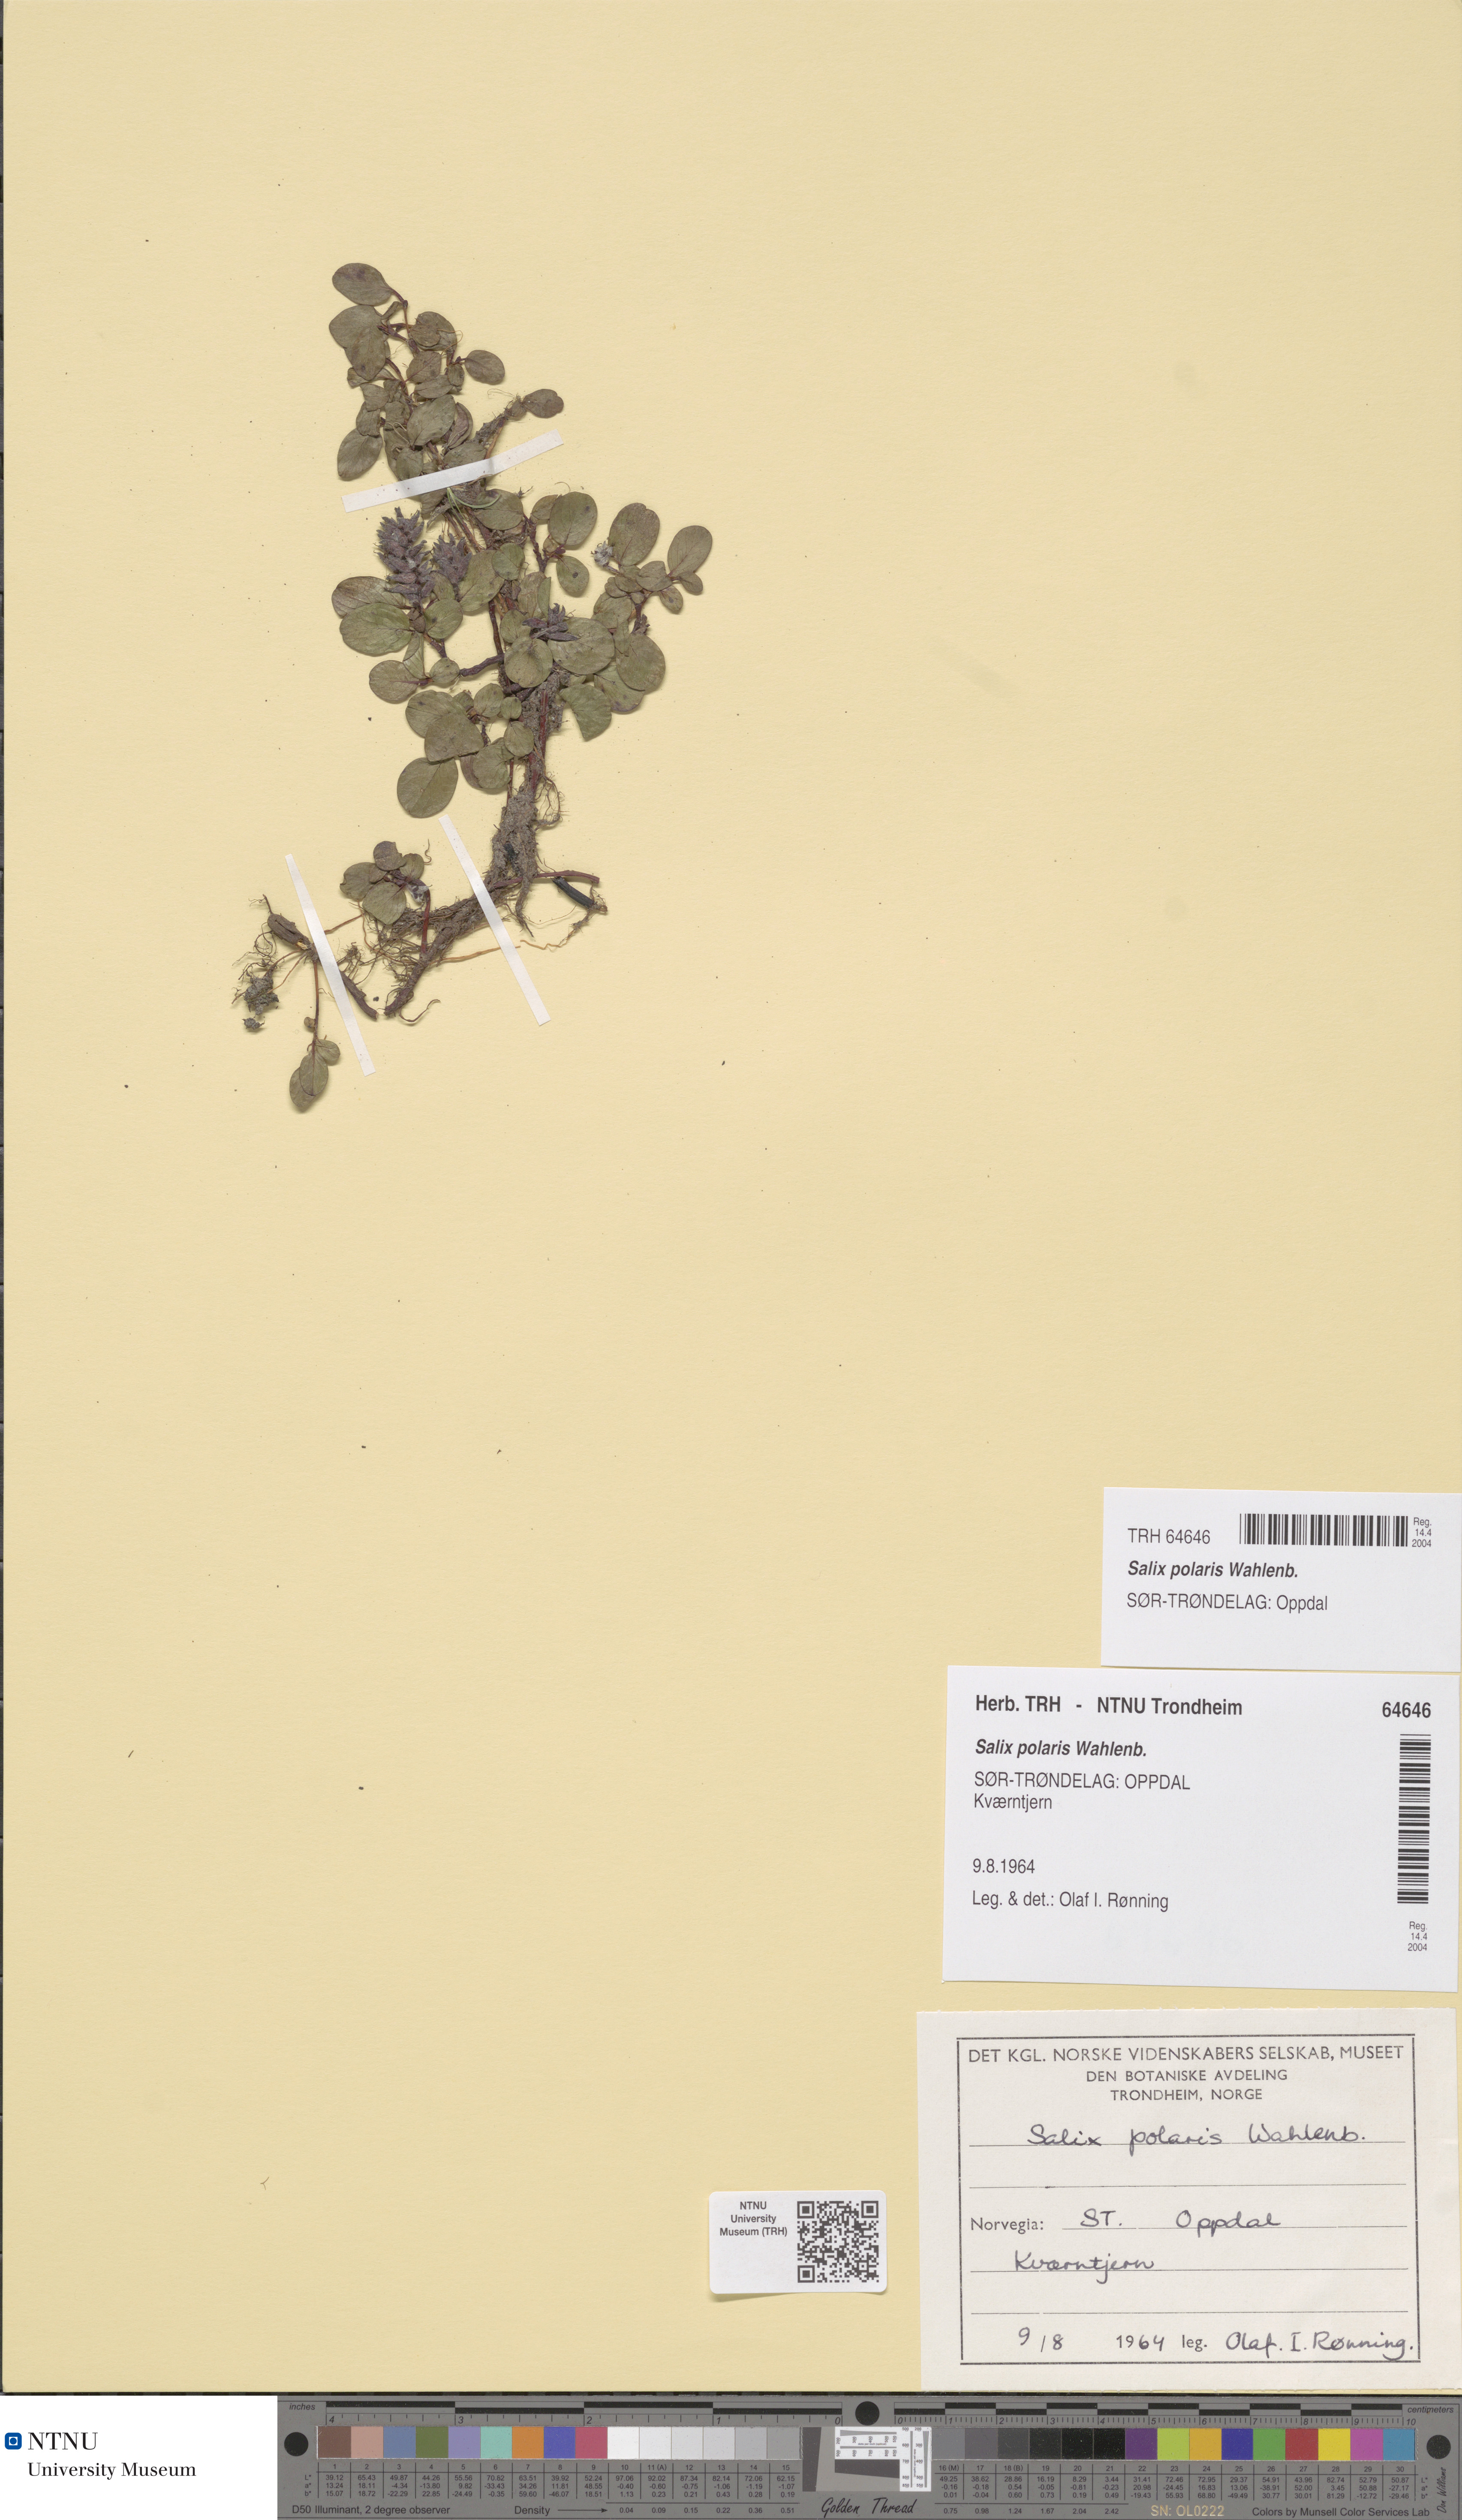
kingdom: Plantae
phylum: Tracheophyta
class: Magnoliopsida
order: Malpighiales
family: Salicaceae
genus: Salix
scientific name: Salix polaris
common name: Polar willow
